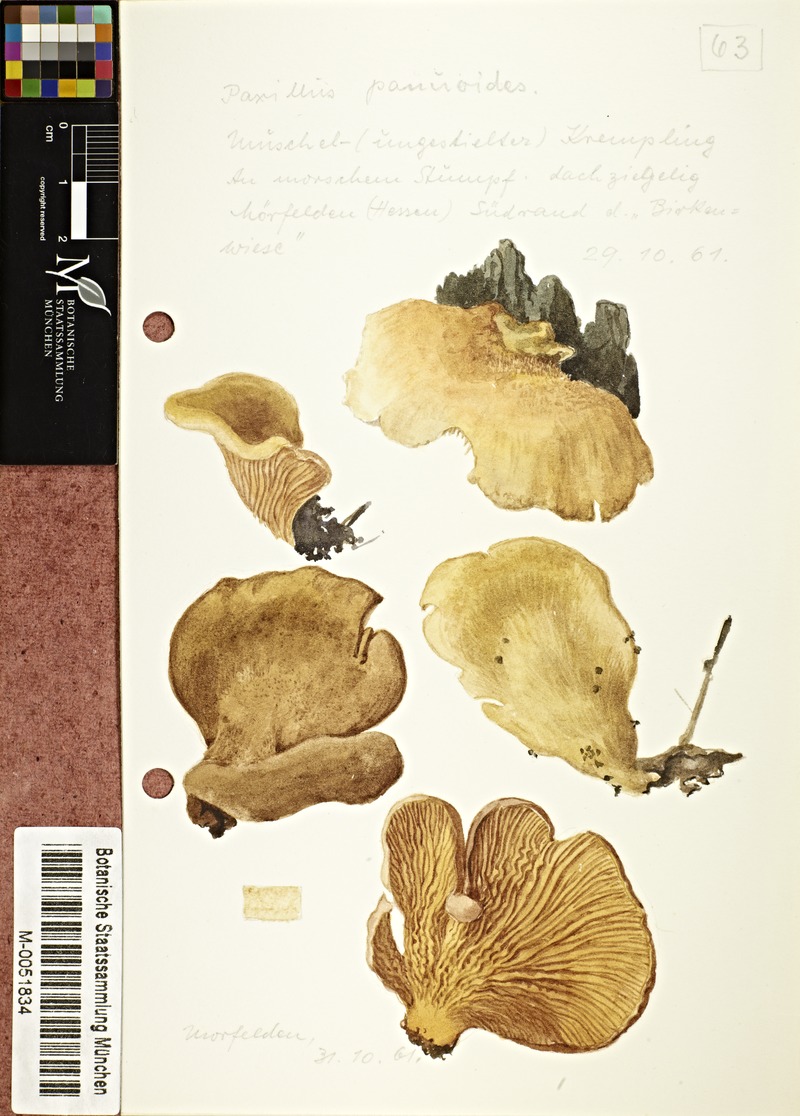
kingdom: Fungi
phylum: Basidiomycota
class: Agaricomycetes
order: Boletales
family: Tapinellaceae
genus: Tapinella
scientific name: Tapinella panuoides
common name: Oyster rollrim
